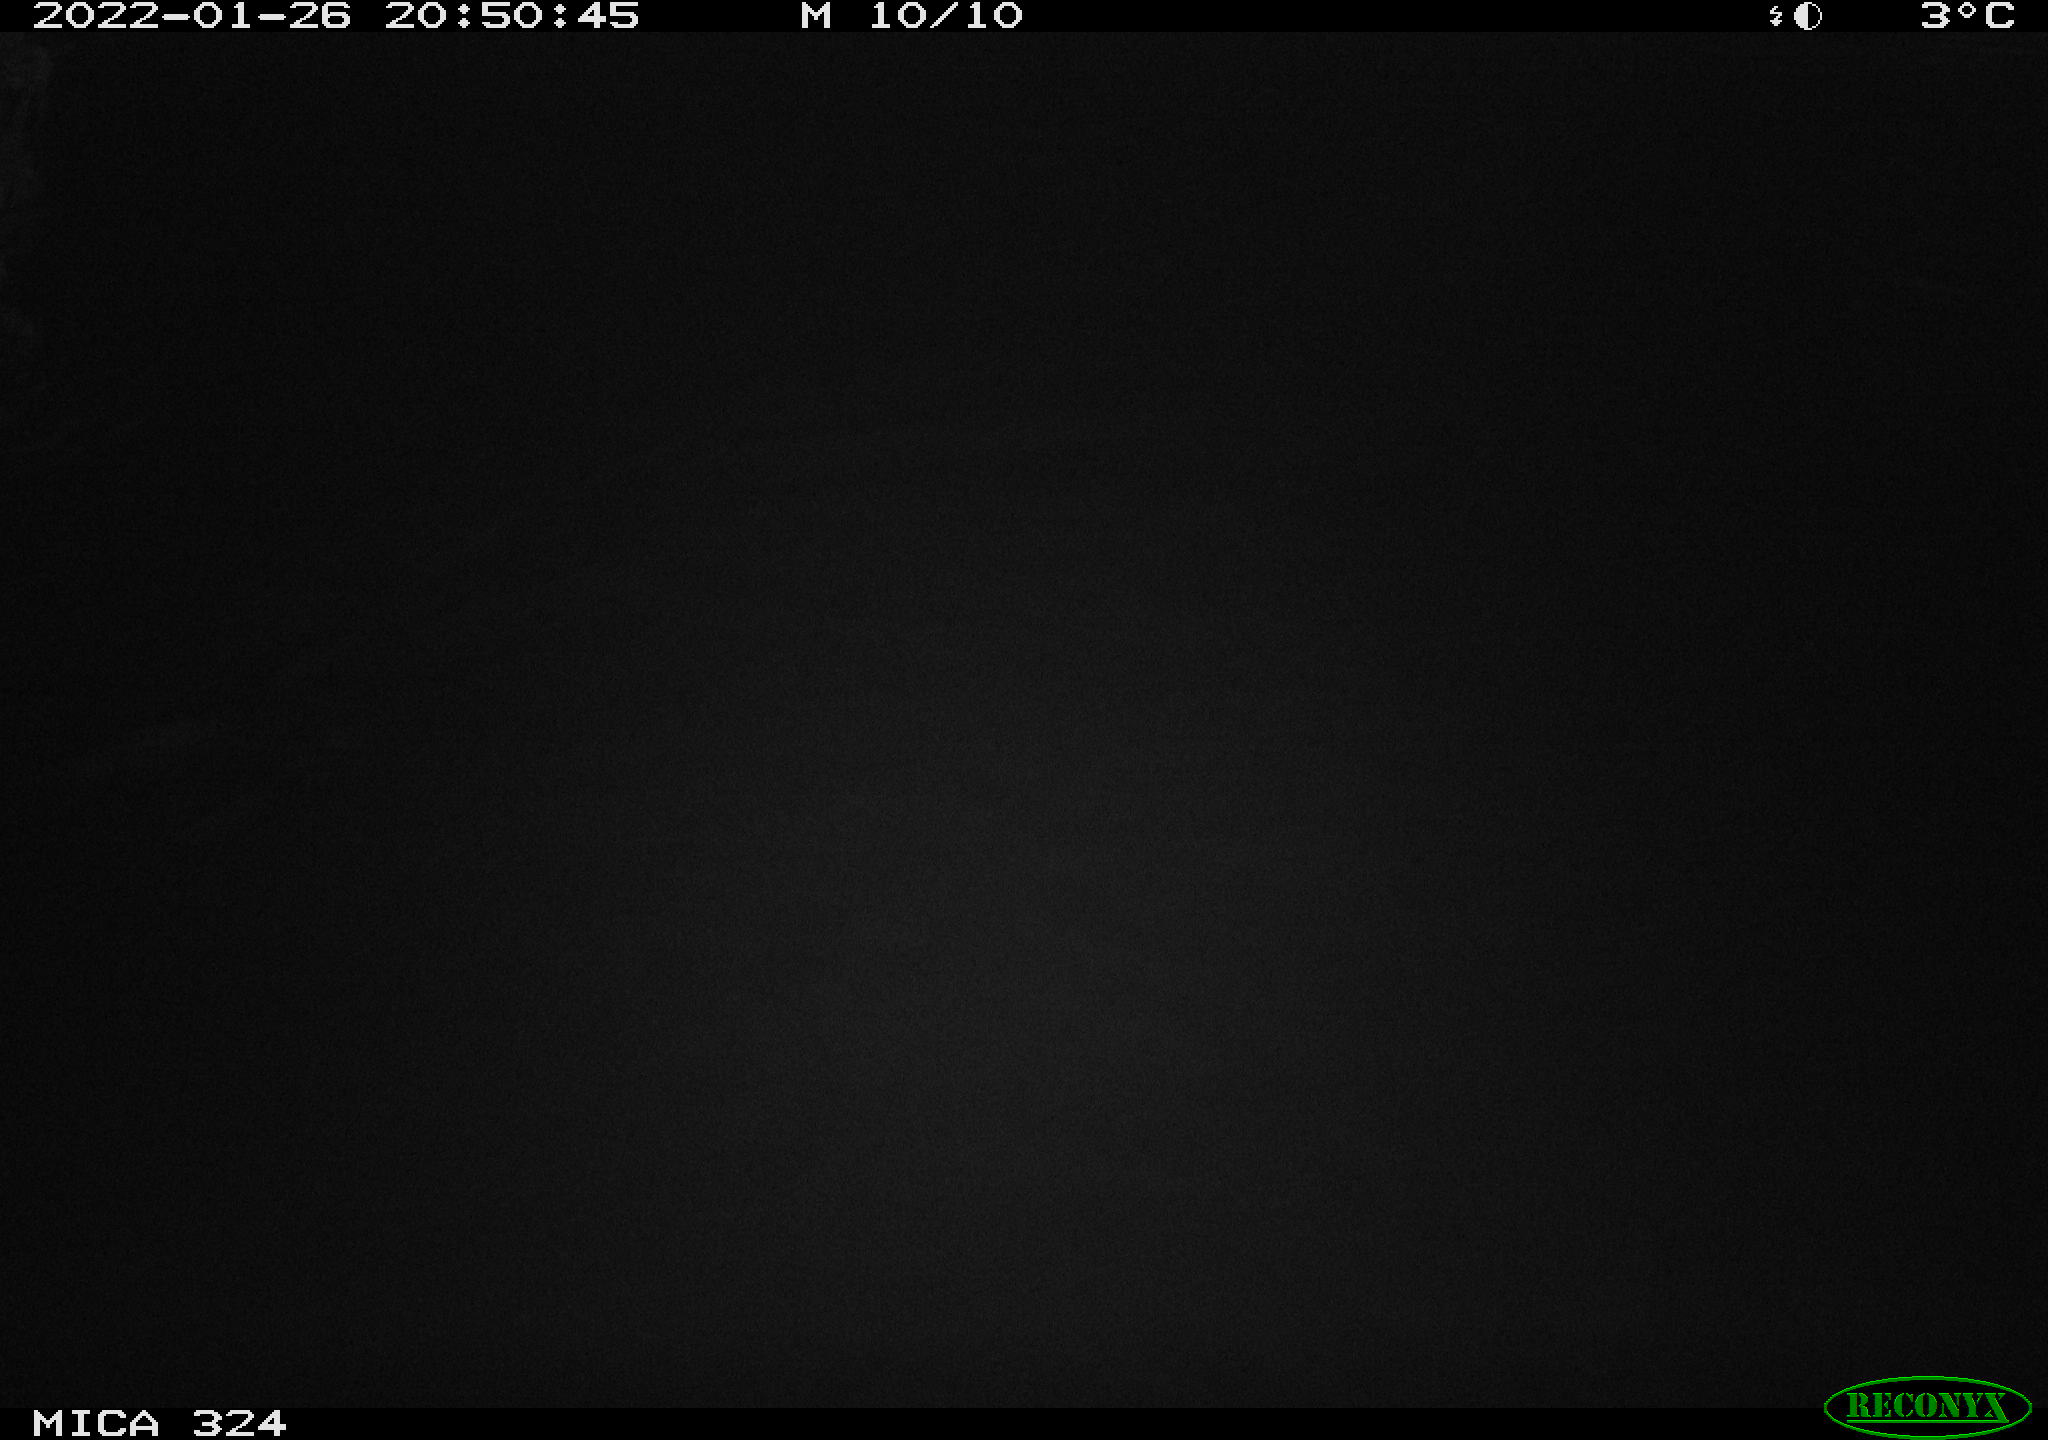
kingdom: Animalia
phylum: Chordata
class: Mammalia
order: Rodentia
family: Cricetidae
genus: Ondatra
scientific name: Ondatra zibethicus
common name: Muskrat
